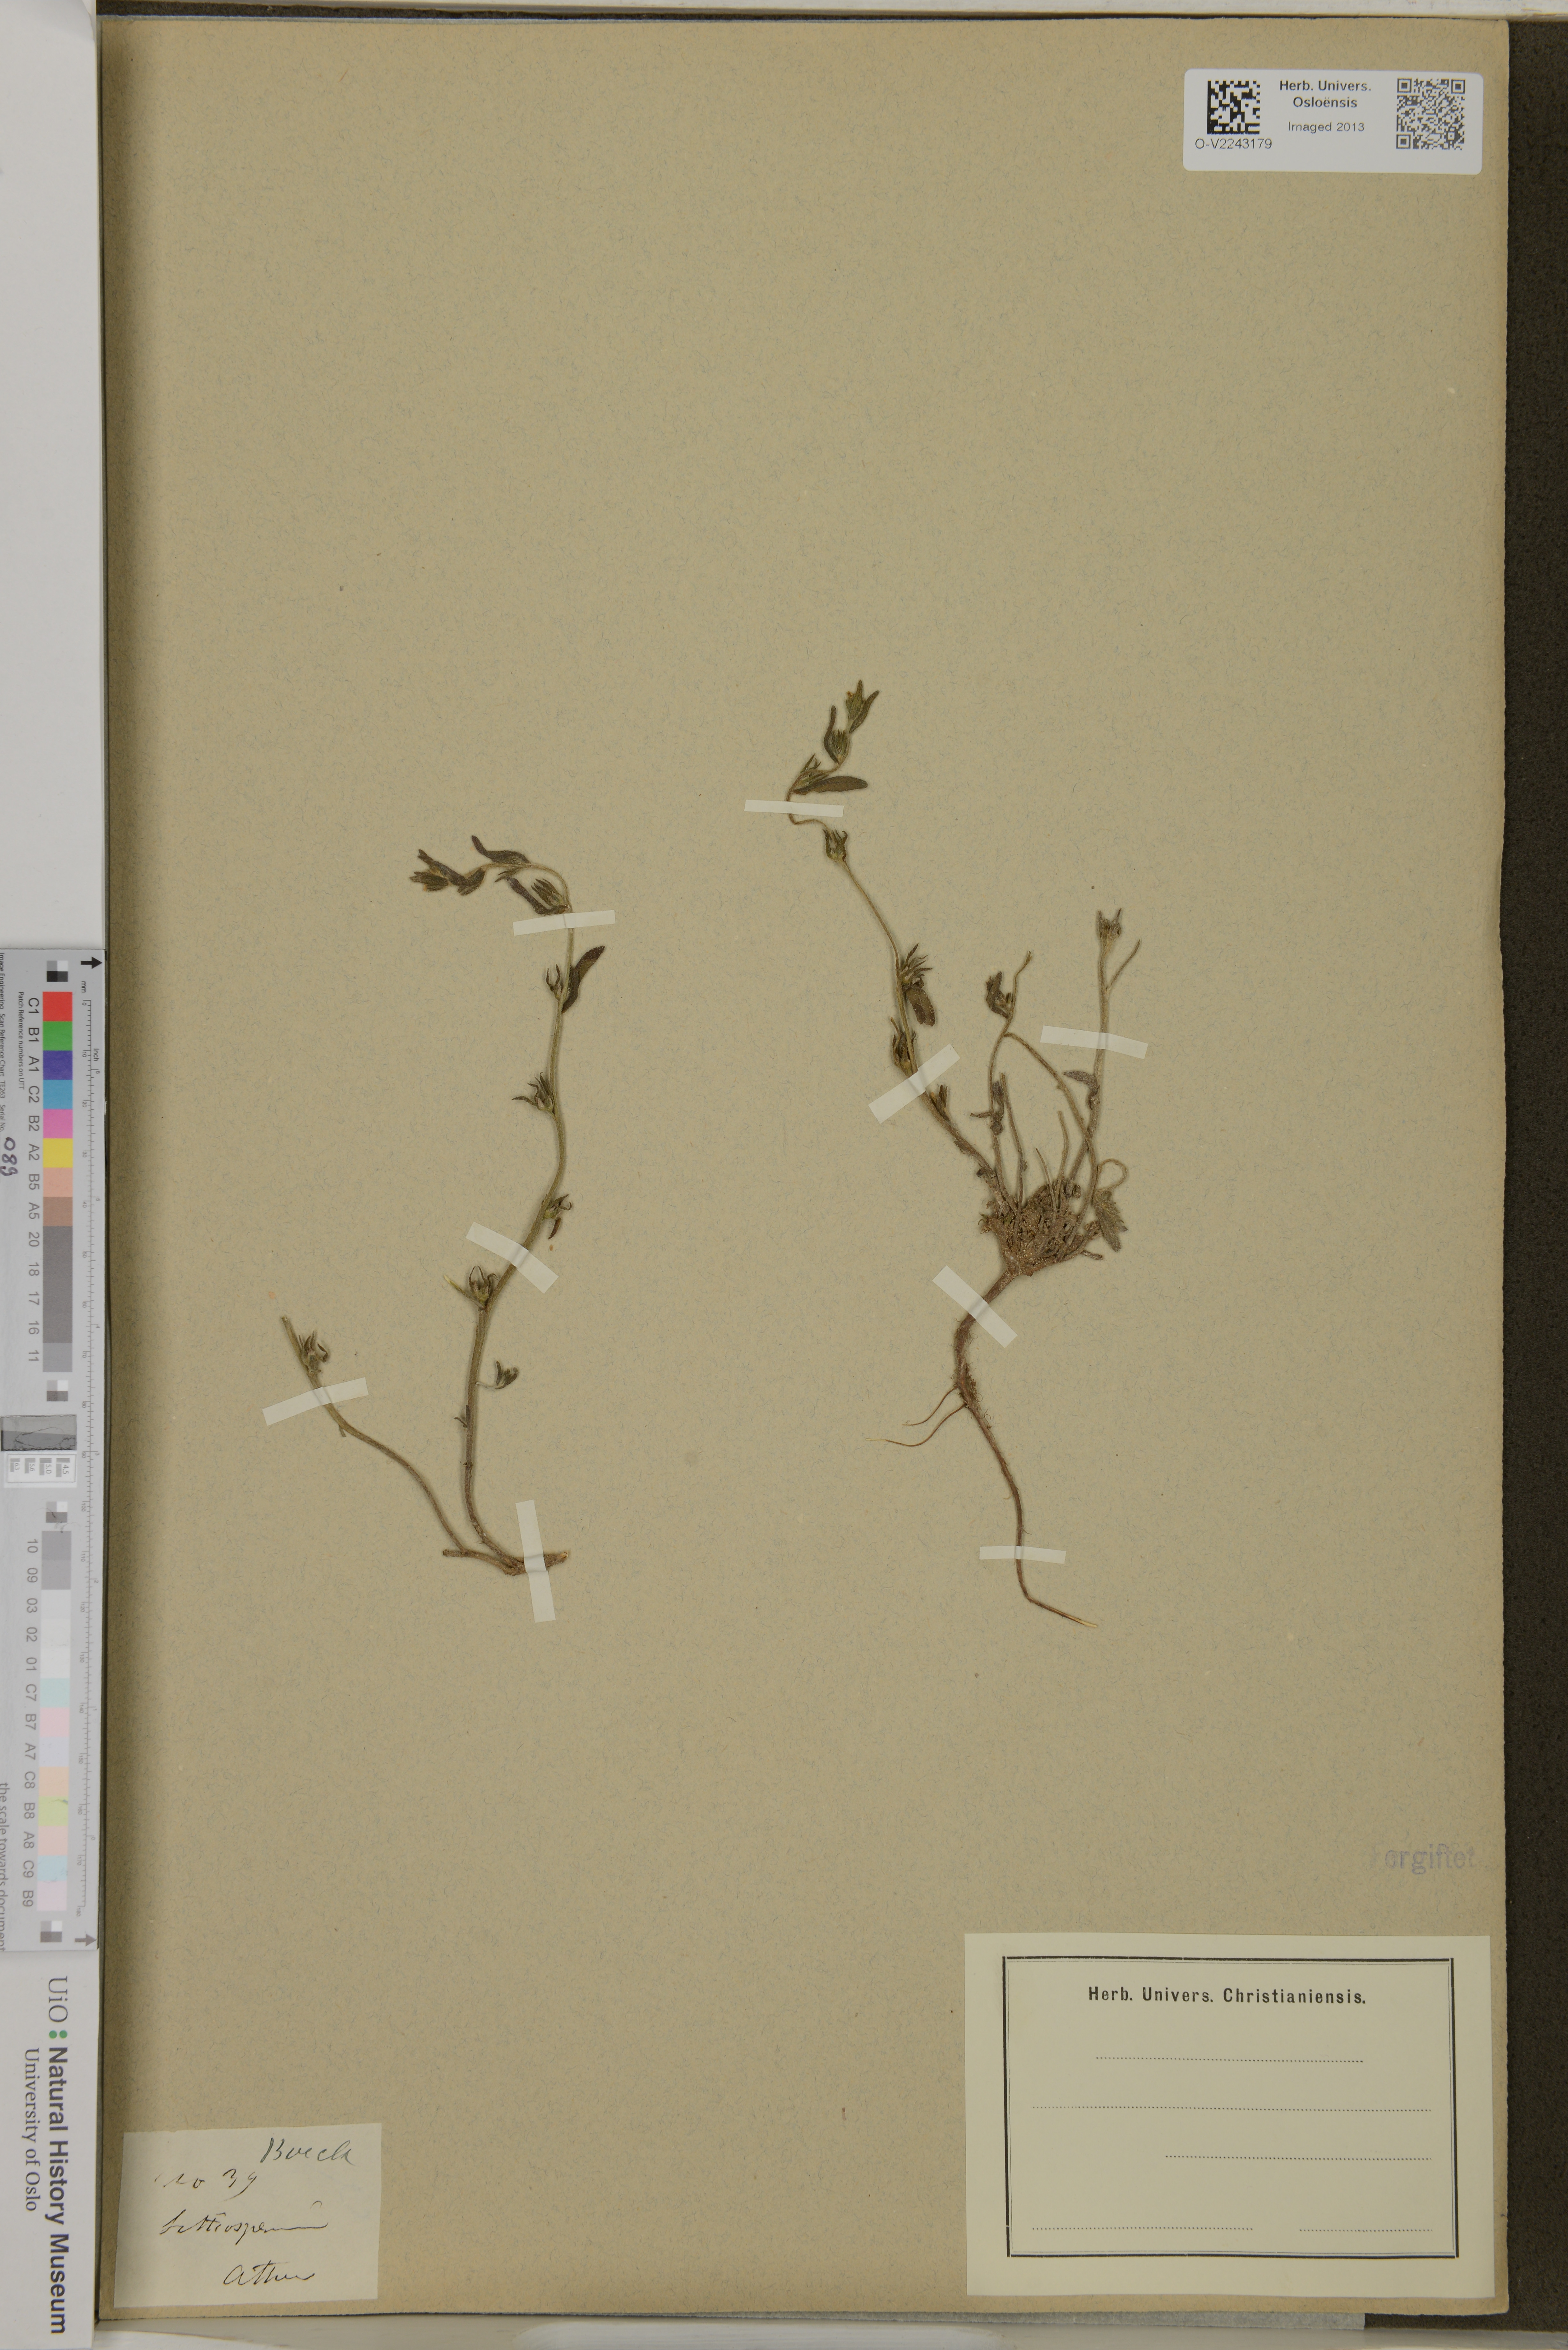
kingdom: Plantae
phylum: Tracheophyta
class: Magnoliopsida
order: Boraginales
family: Boraginaceae
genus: Lithospermum
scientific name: Lithospermum
